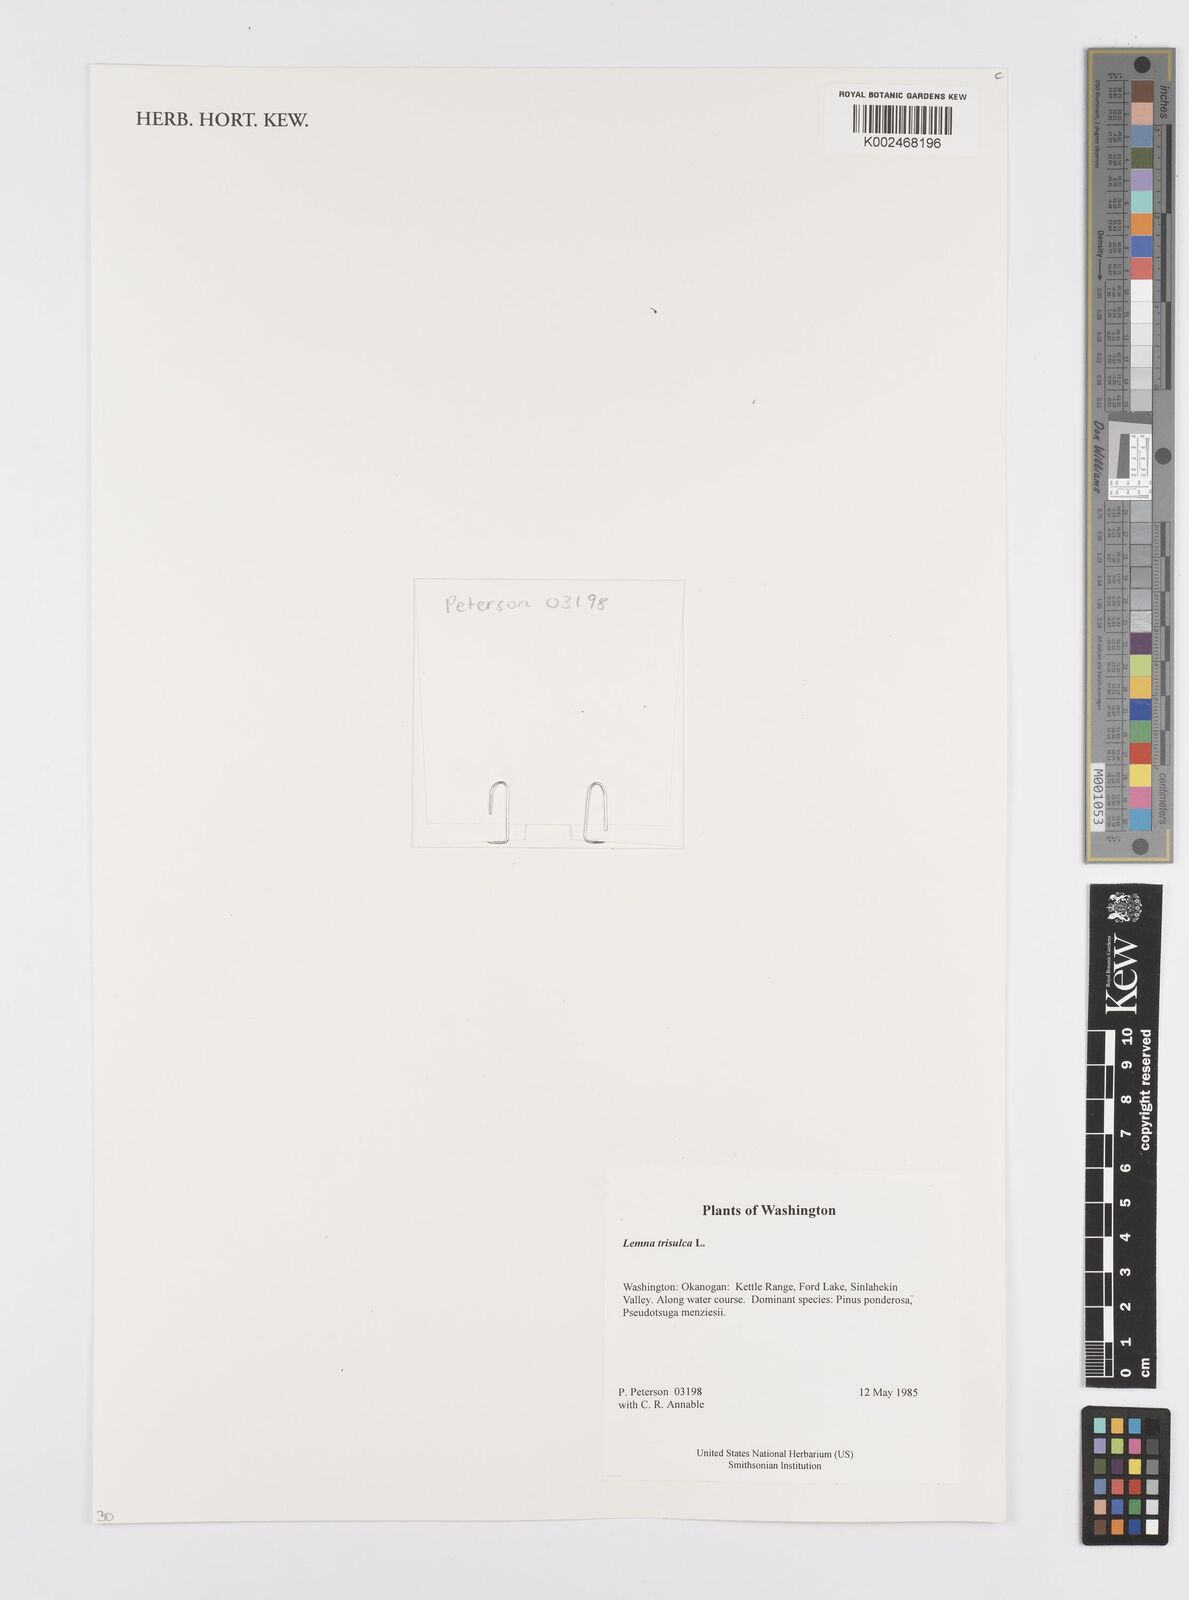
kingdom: Plantae
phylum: Tracheophyta
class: Liliopsida
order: Alismatales
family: Araceae
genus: Lemna
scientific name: Lemna trisulca
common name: Ivy-leaved duckweed
